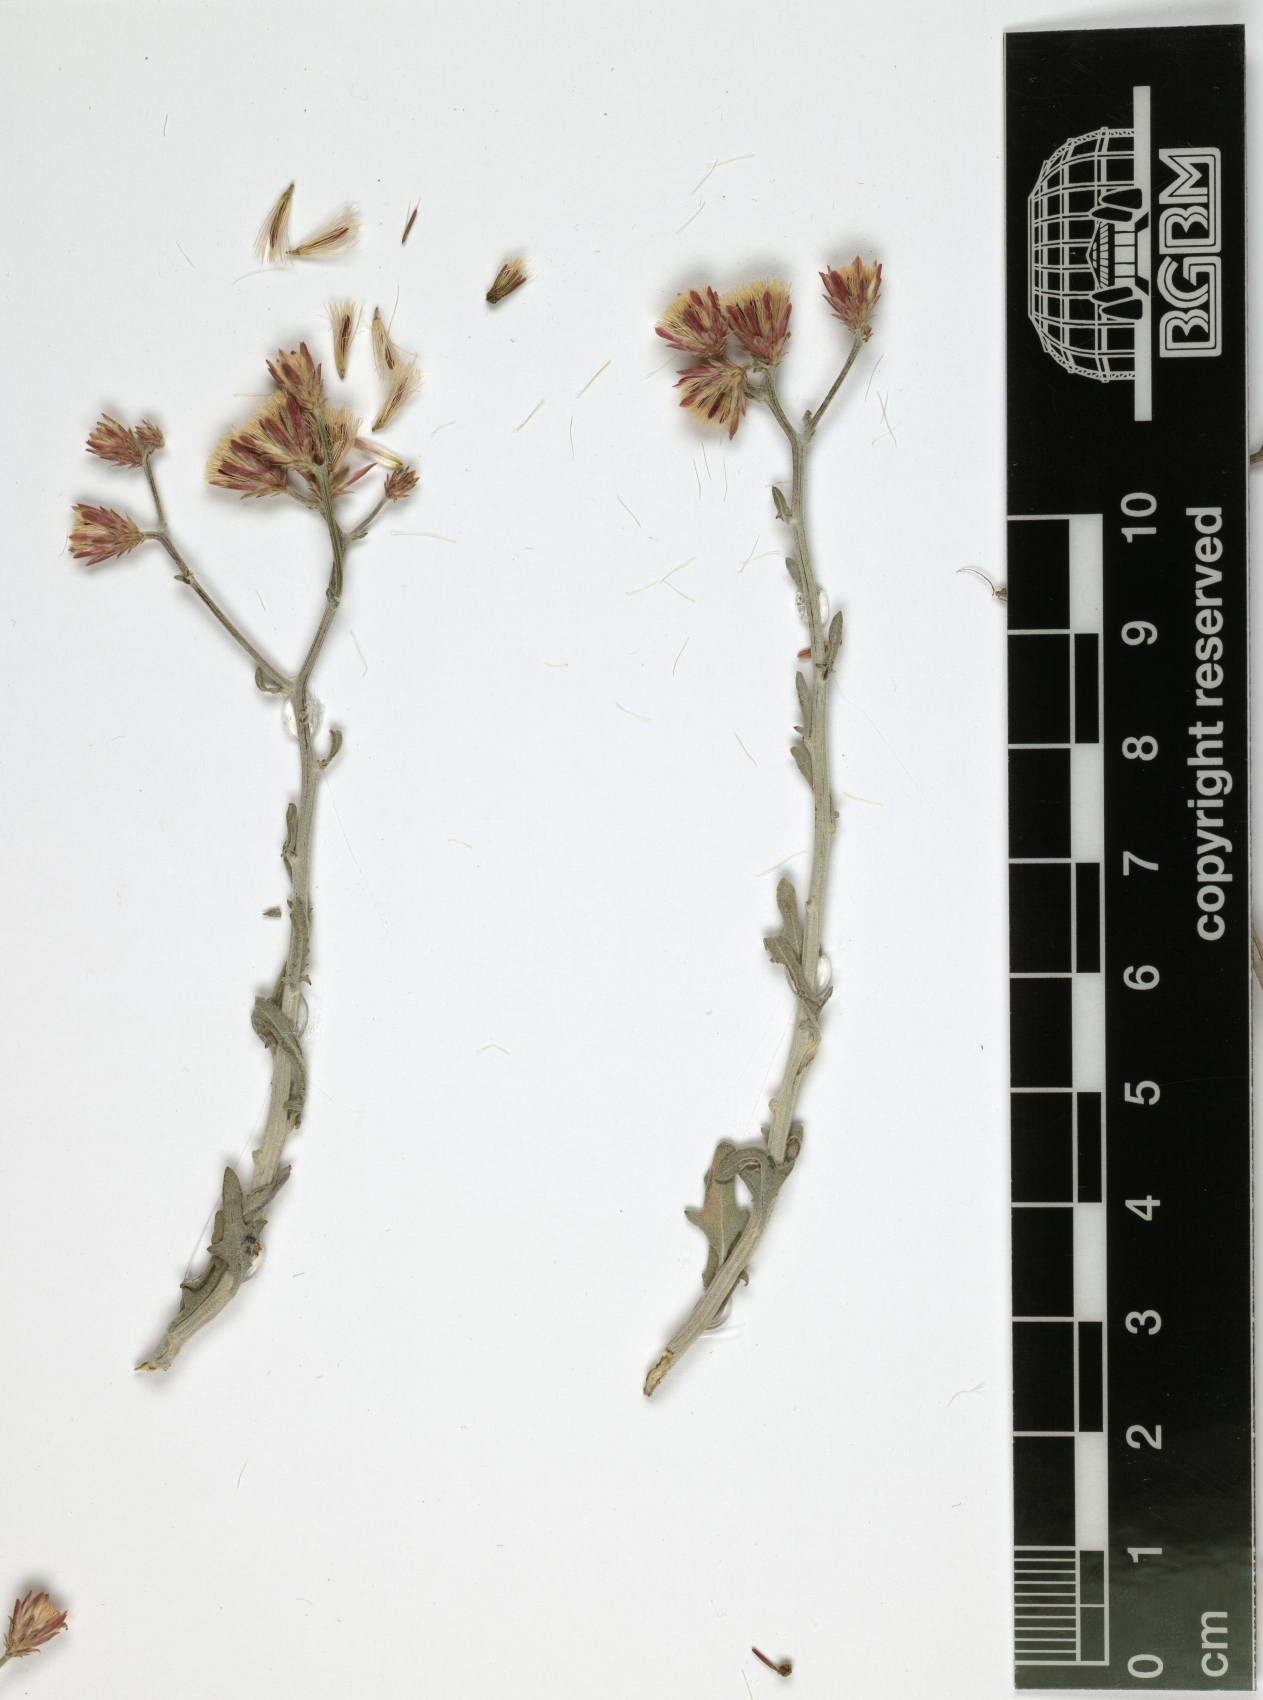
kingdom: Plantae
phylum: Tracheophyta
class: Magnoliopsida
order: Asterales
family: Asteraceae
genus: Vernonia
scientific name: Vernonia spathulata
